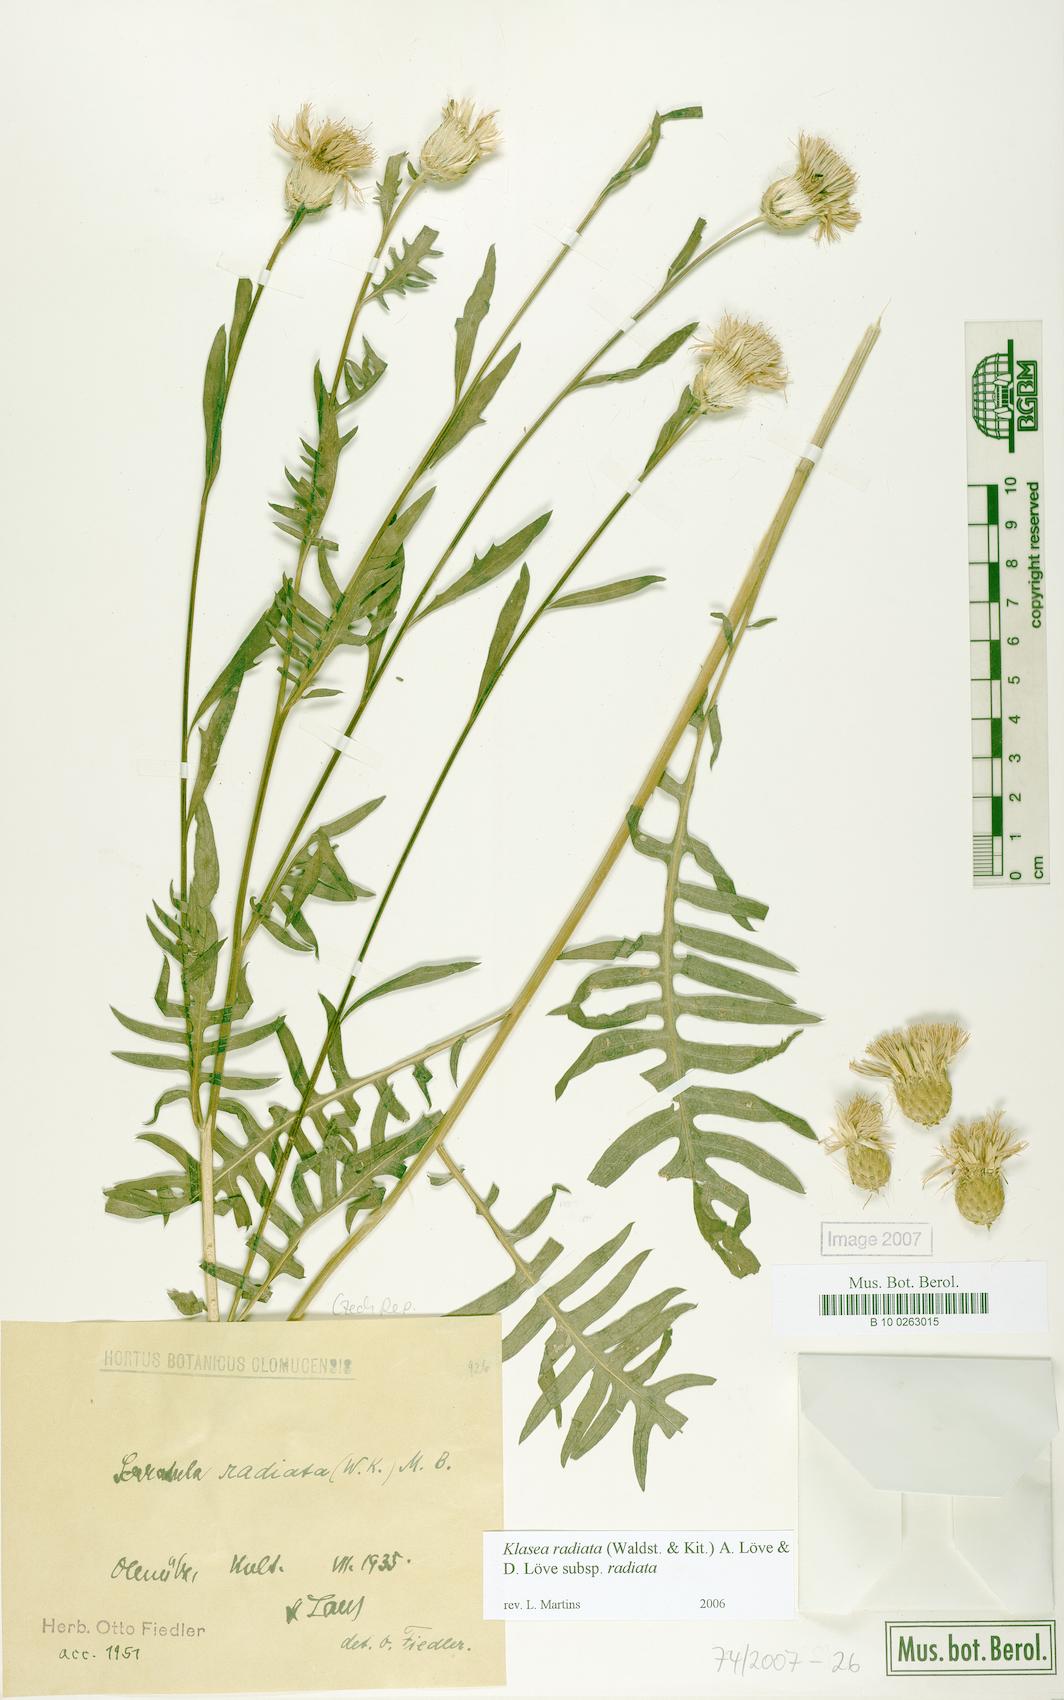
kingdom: Plantae
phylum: Tracheophyta
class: Magnoliopsida
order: Asterales
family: Asteraceae
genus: Klasea
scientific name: Klasea radiata
